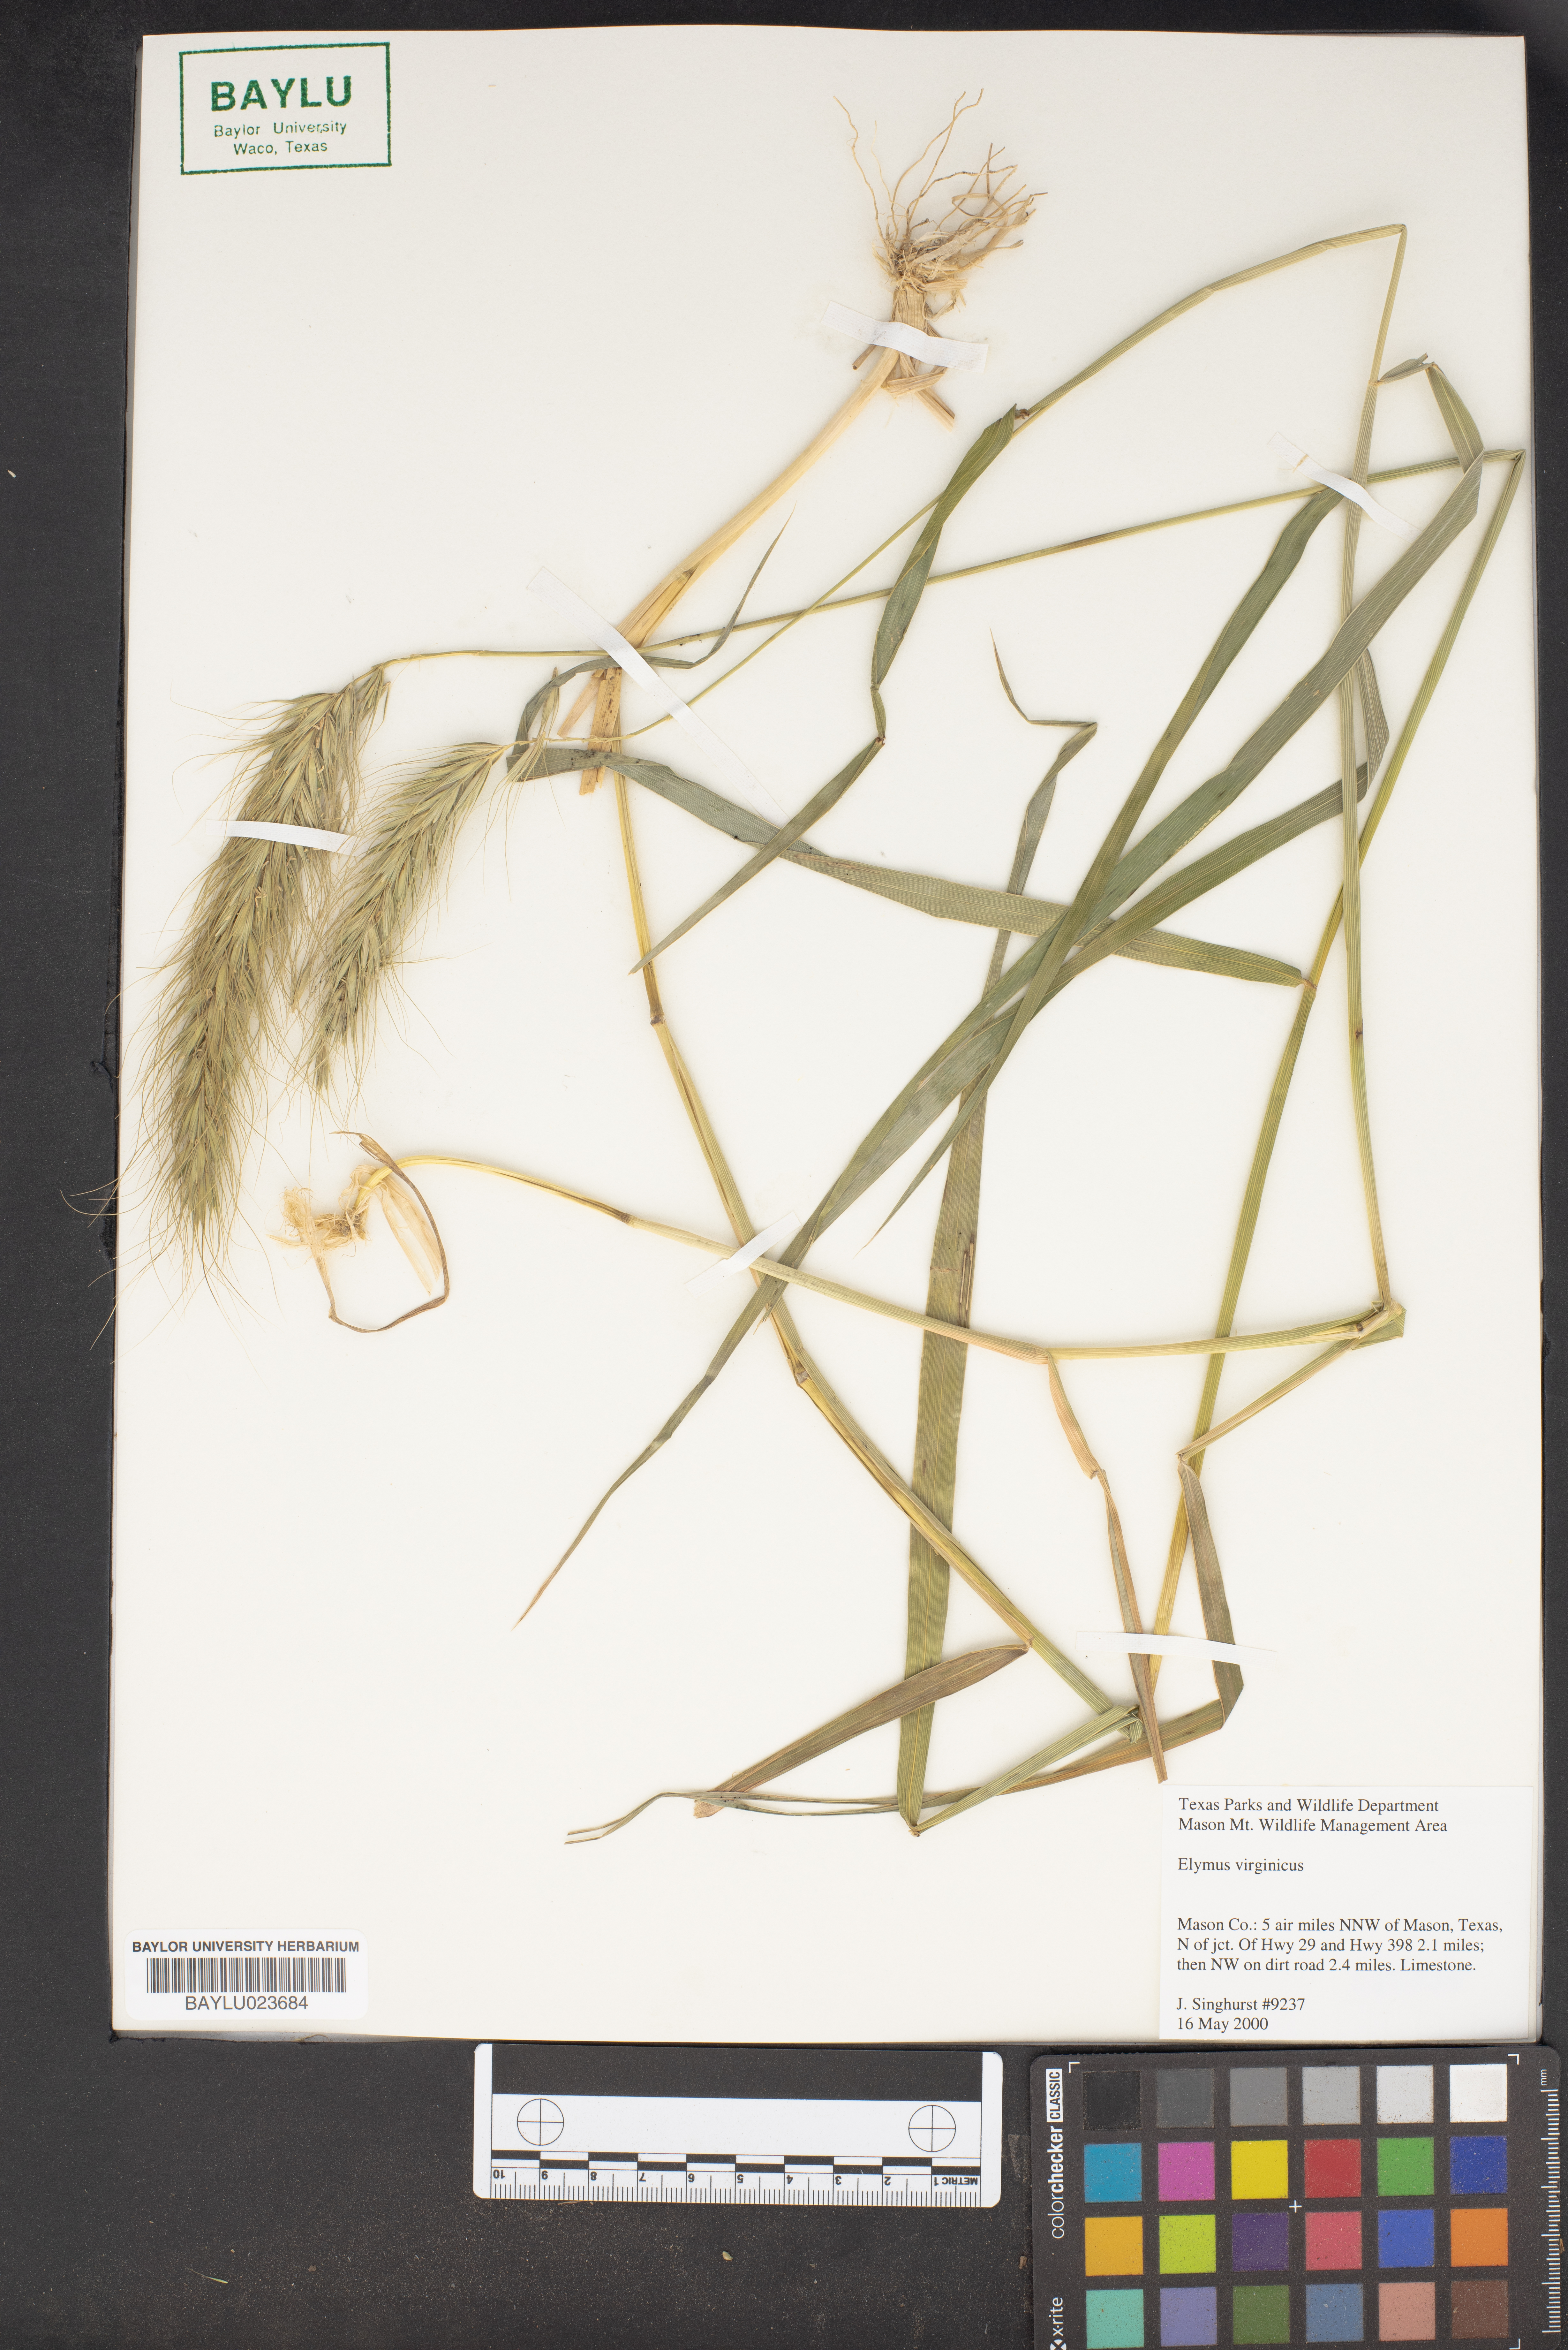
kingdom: Plantae
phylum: Tracheophyta
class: Liliopsida
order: Poales
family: Poaceae
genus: Elymus
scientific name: Elymus virginicus
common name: Common eastern wildrye
